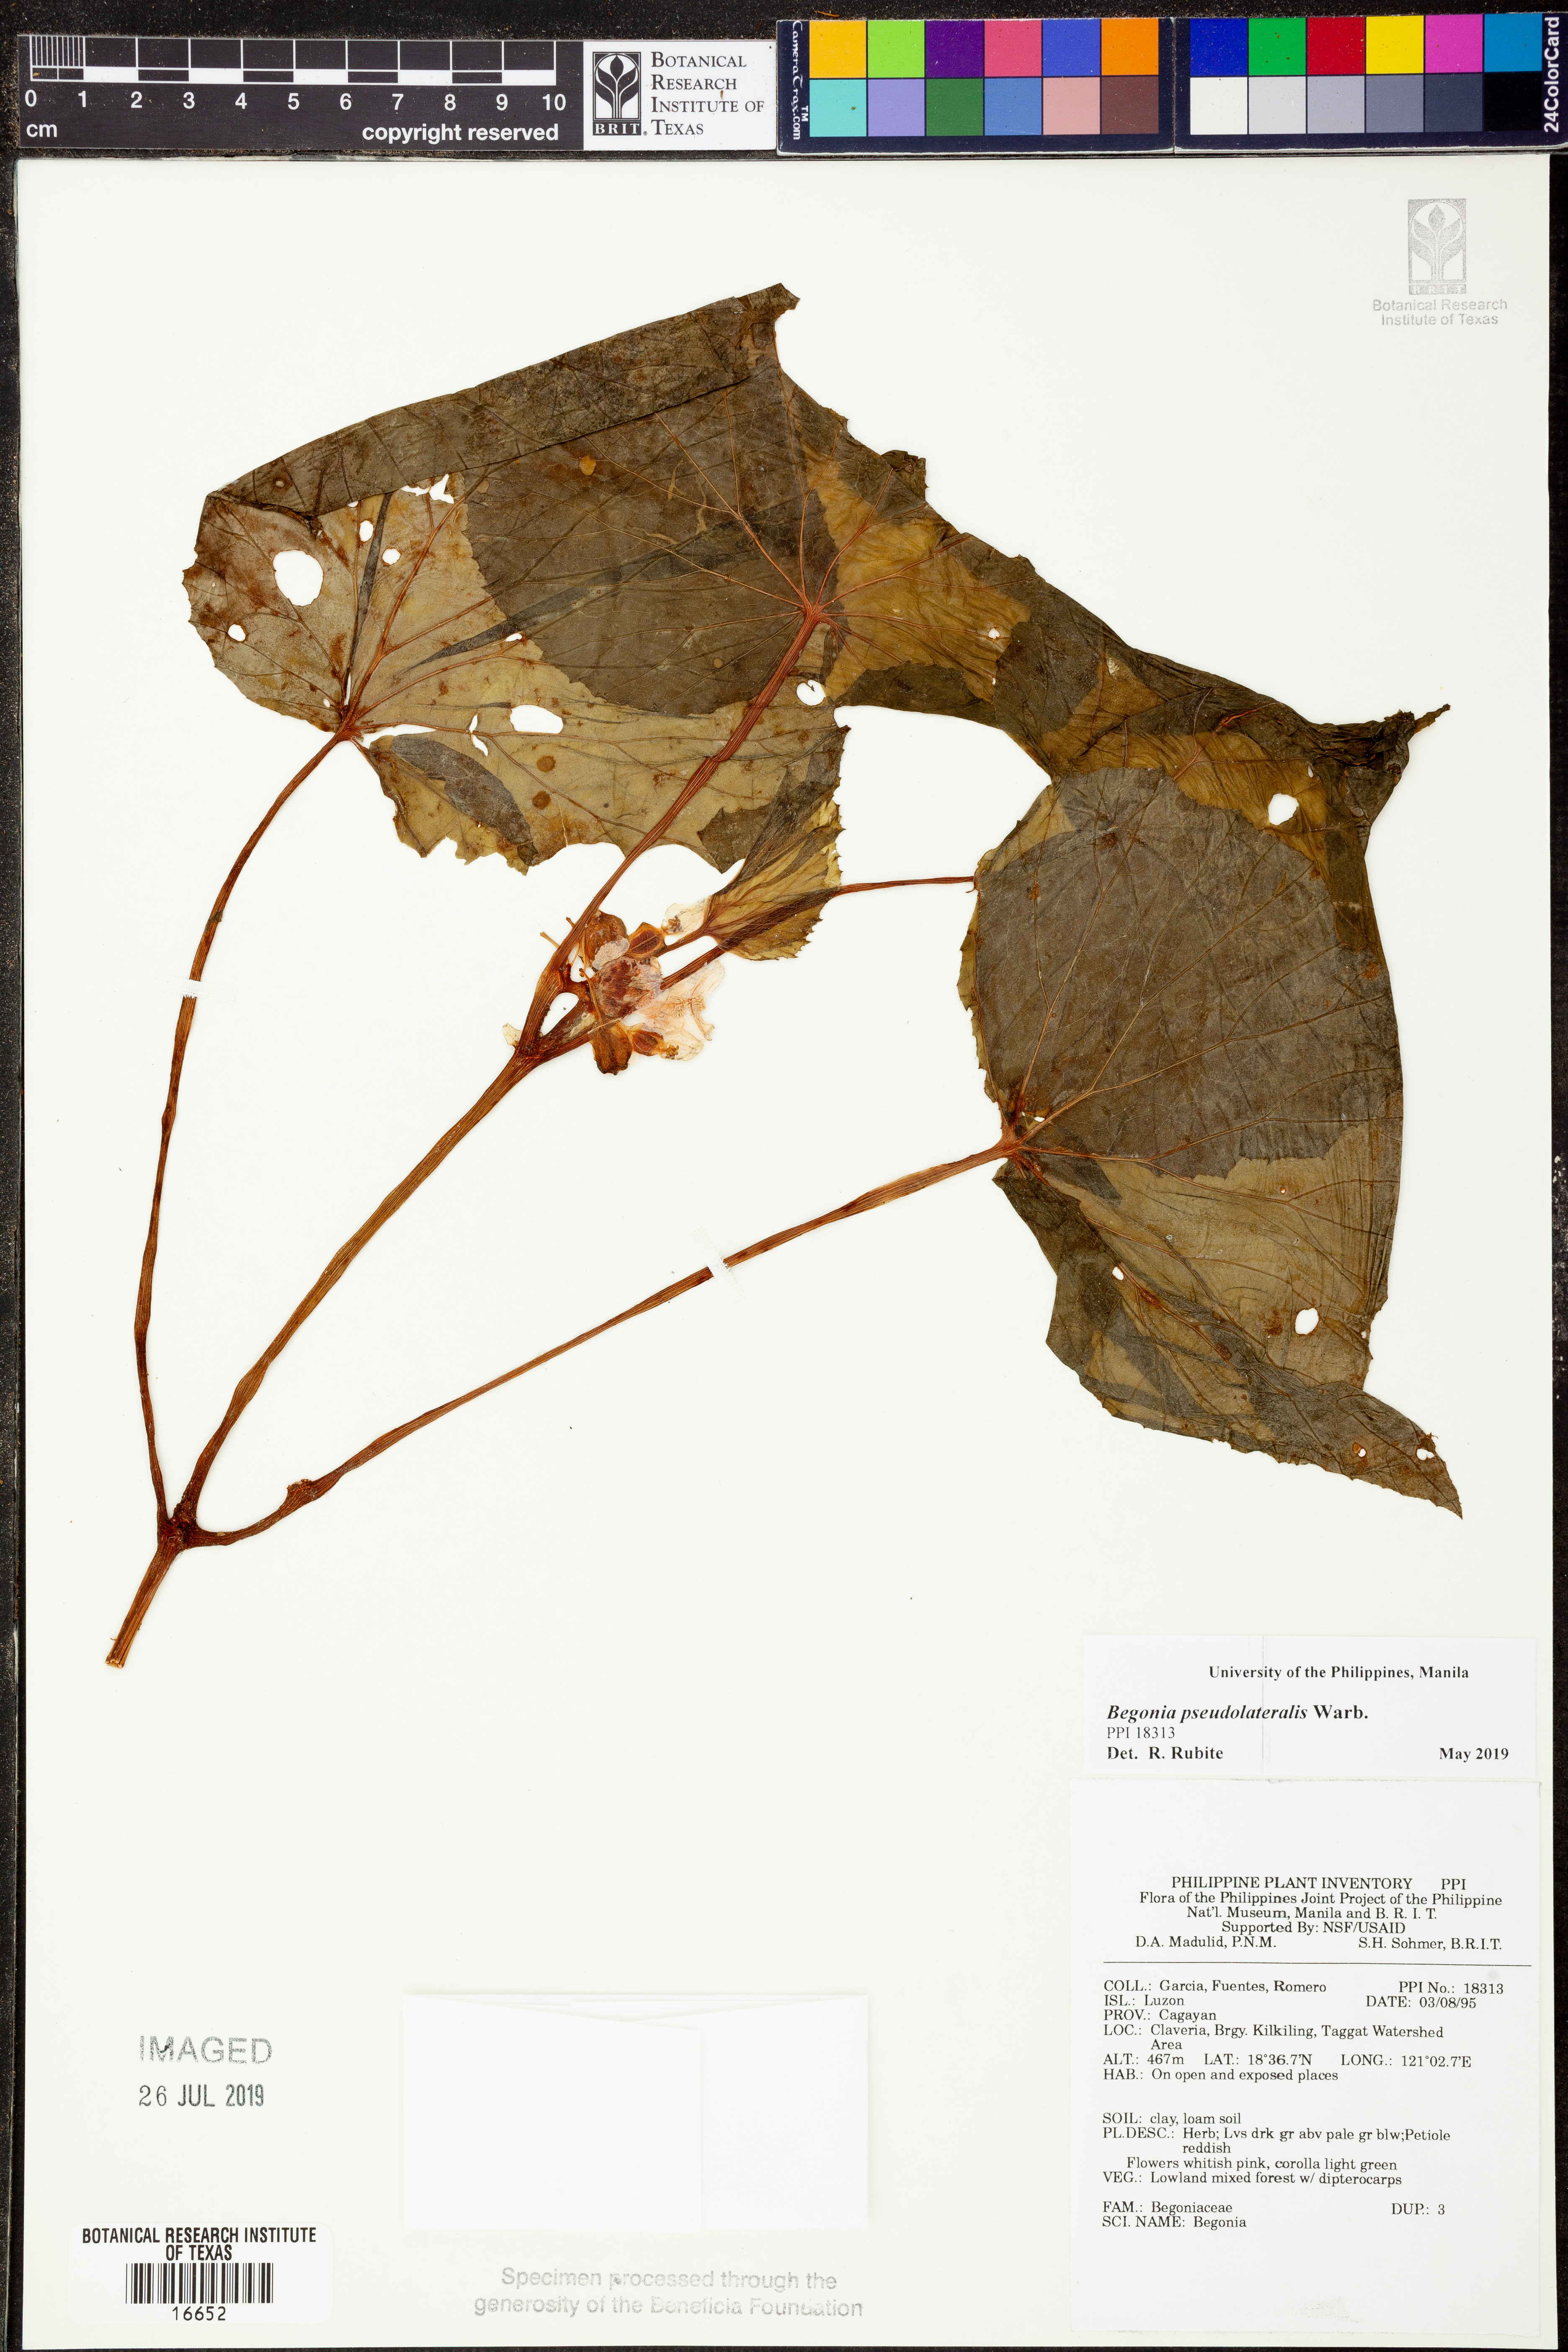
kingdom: Plantae
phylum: Tracheophyta
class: Magnoliopsida
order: Cucurbitales
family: Begoniaceae
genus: Begonia
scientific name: Begonia
